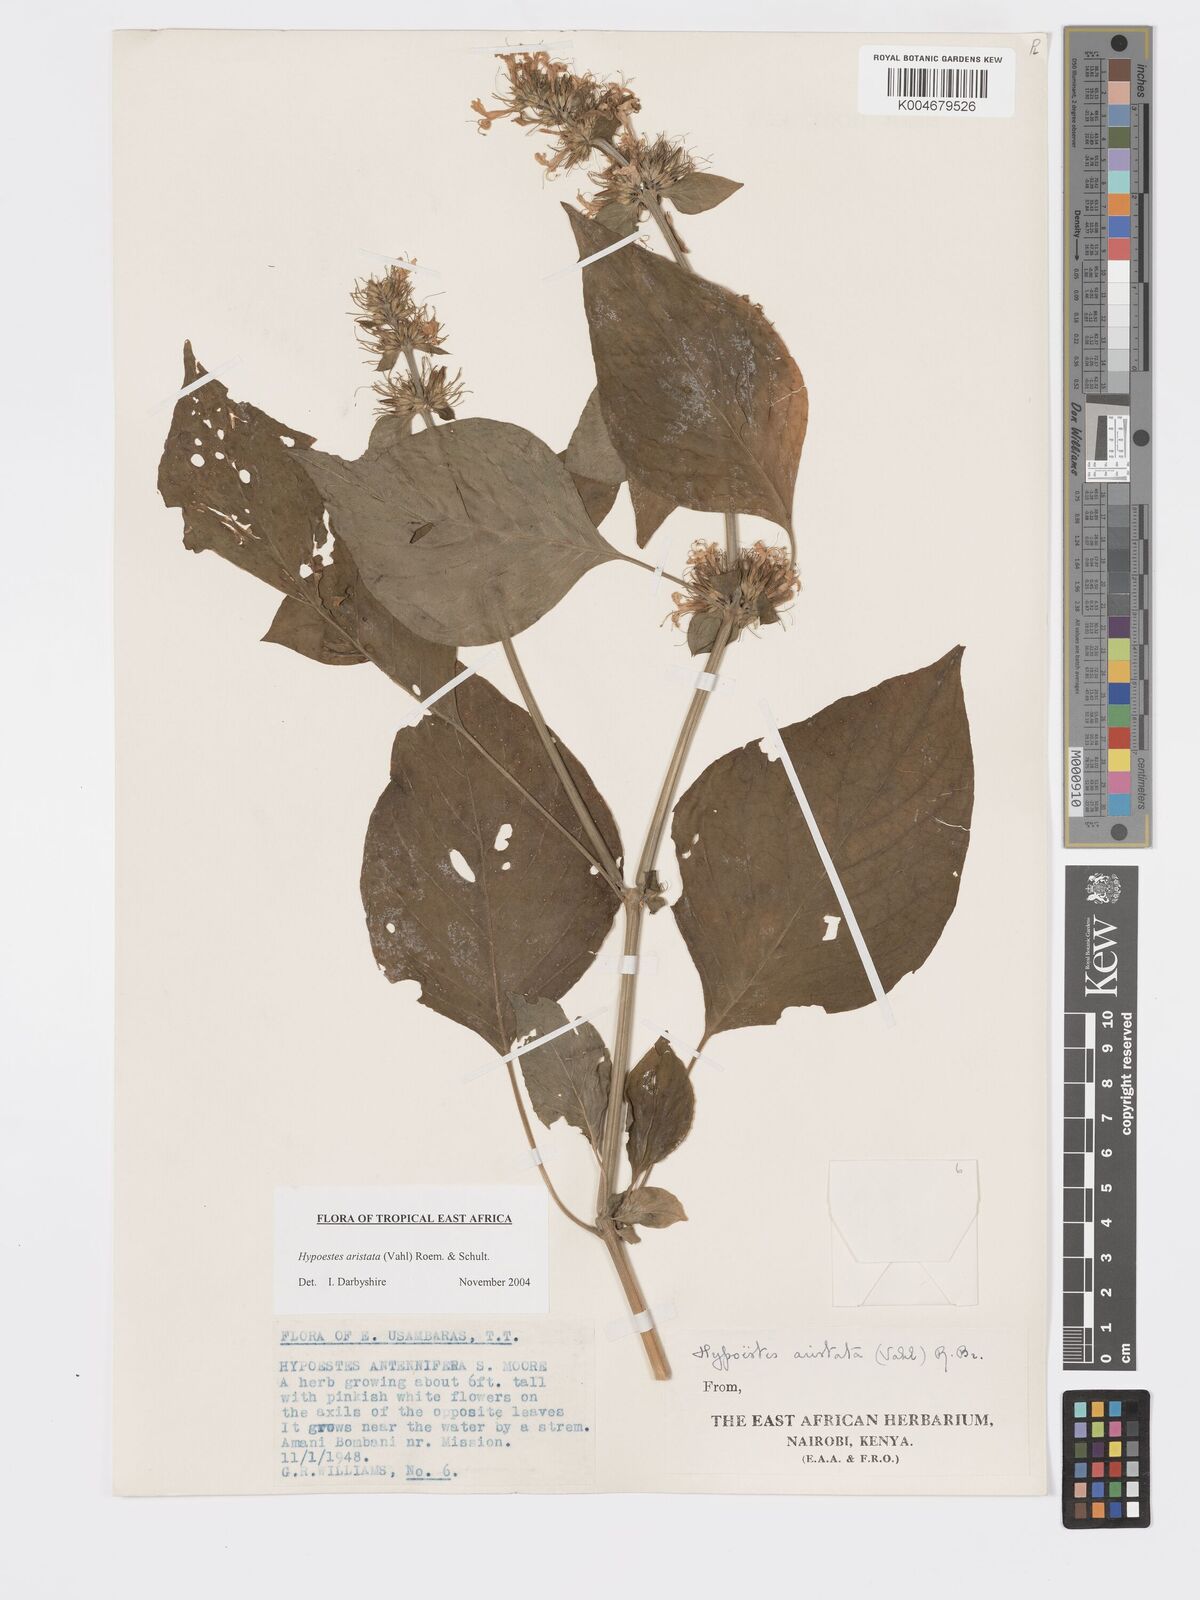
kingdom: Plantae
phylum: Tracheophyta
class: Magnoliopsida
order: Lamiales
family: Acanthaceae
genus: Hypoestes
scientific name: Hypoestes aristata
